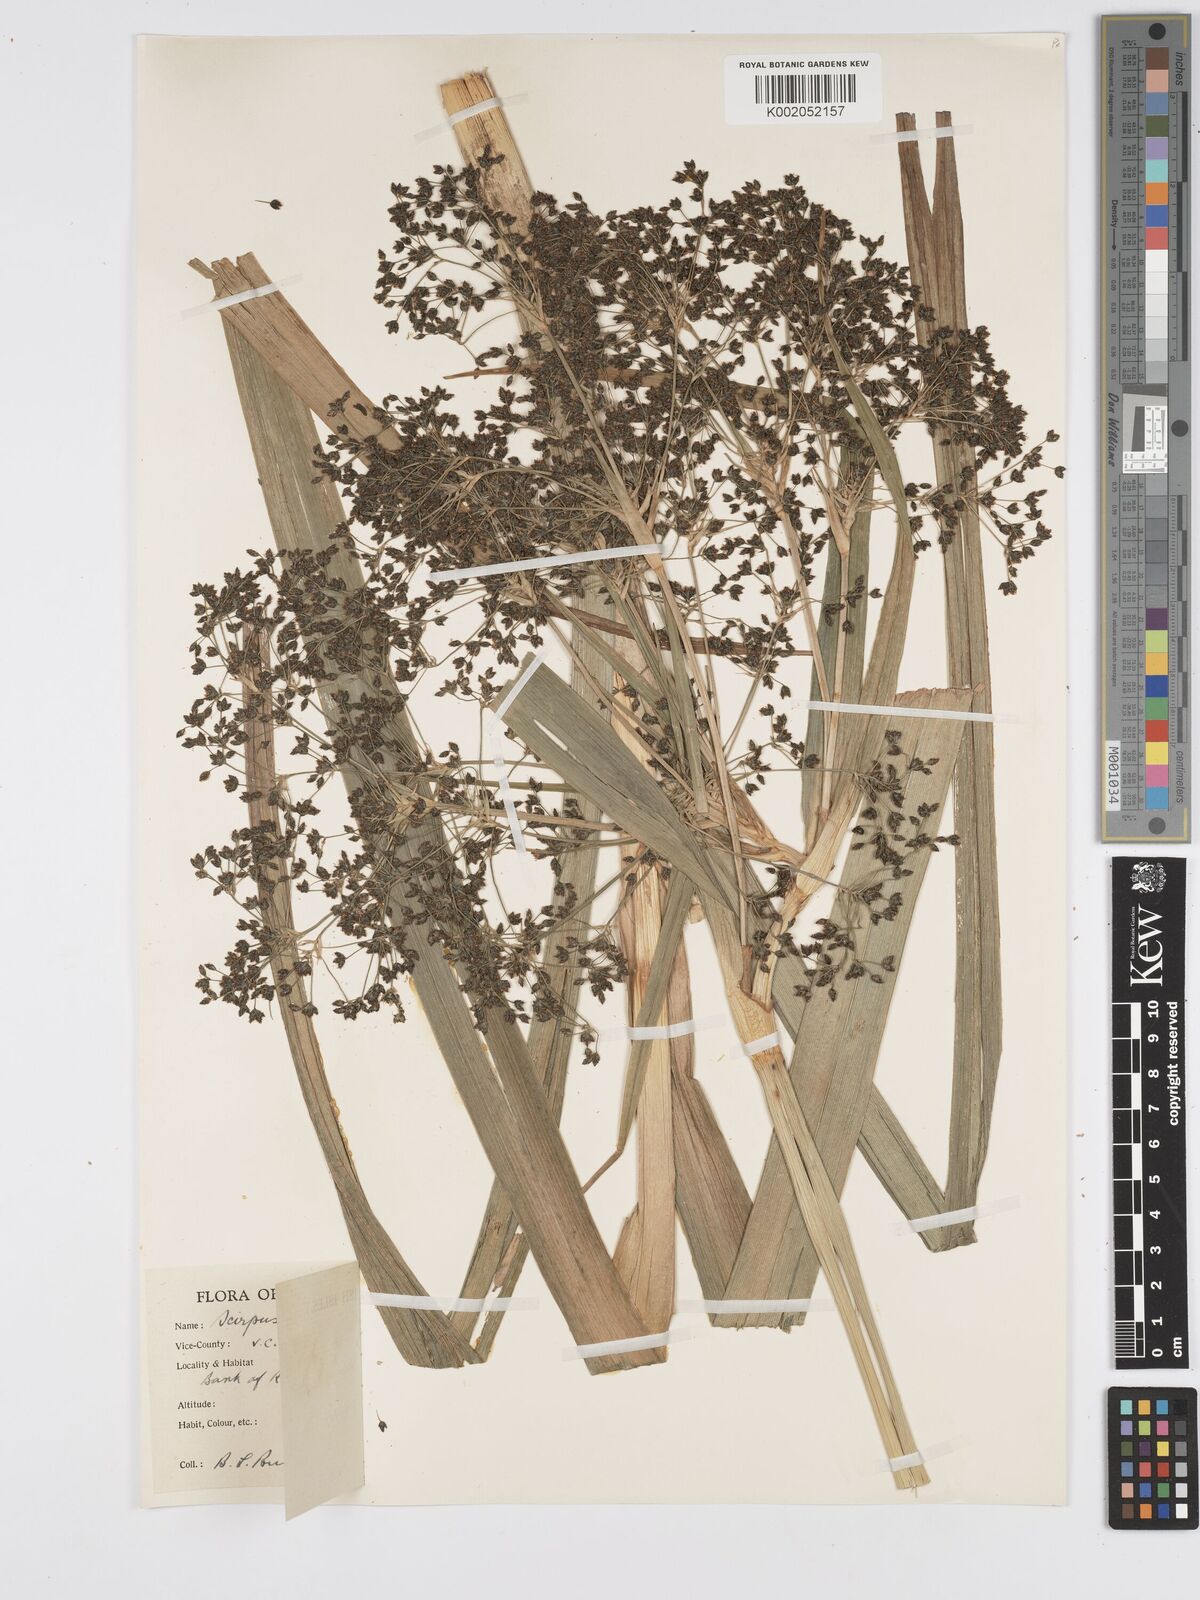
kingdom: Plantae
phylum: Tracheophyta
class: Liliopsida
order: Poales
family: Cyperaceae
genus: Scirpus
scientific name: Scirpus sylvaticus
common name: Wood club-rush
